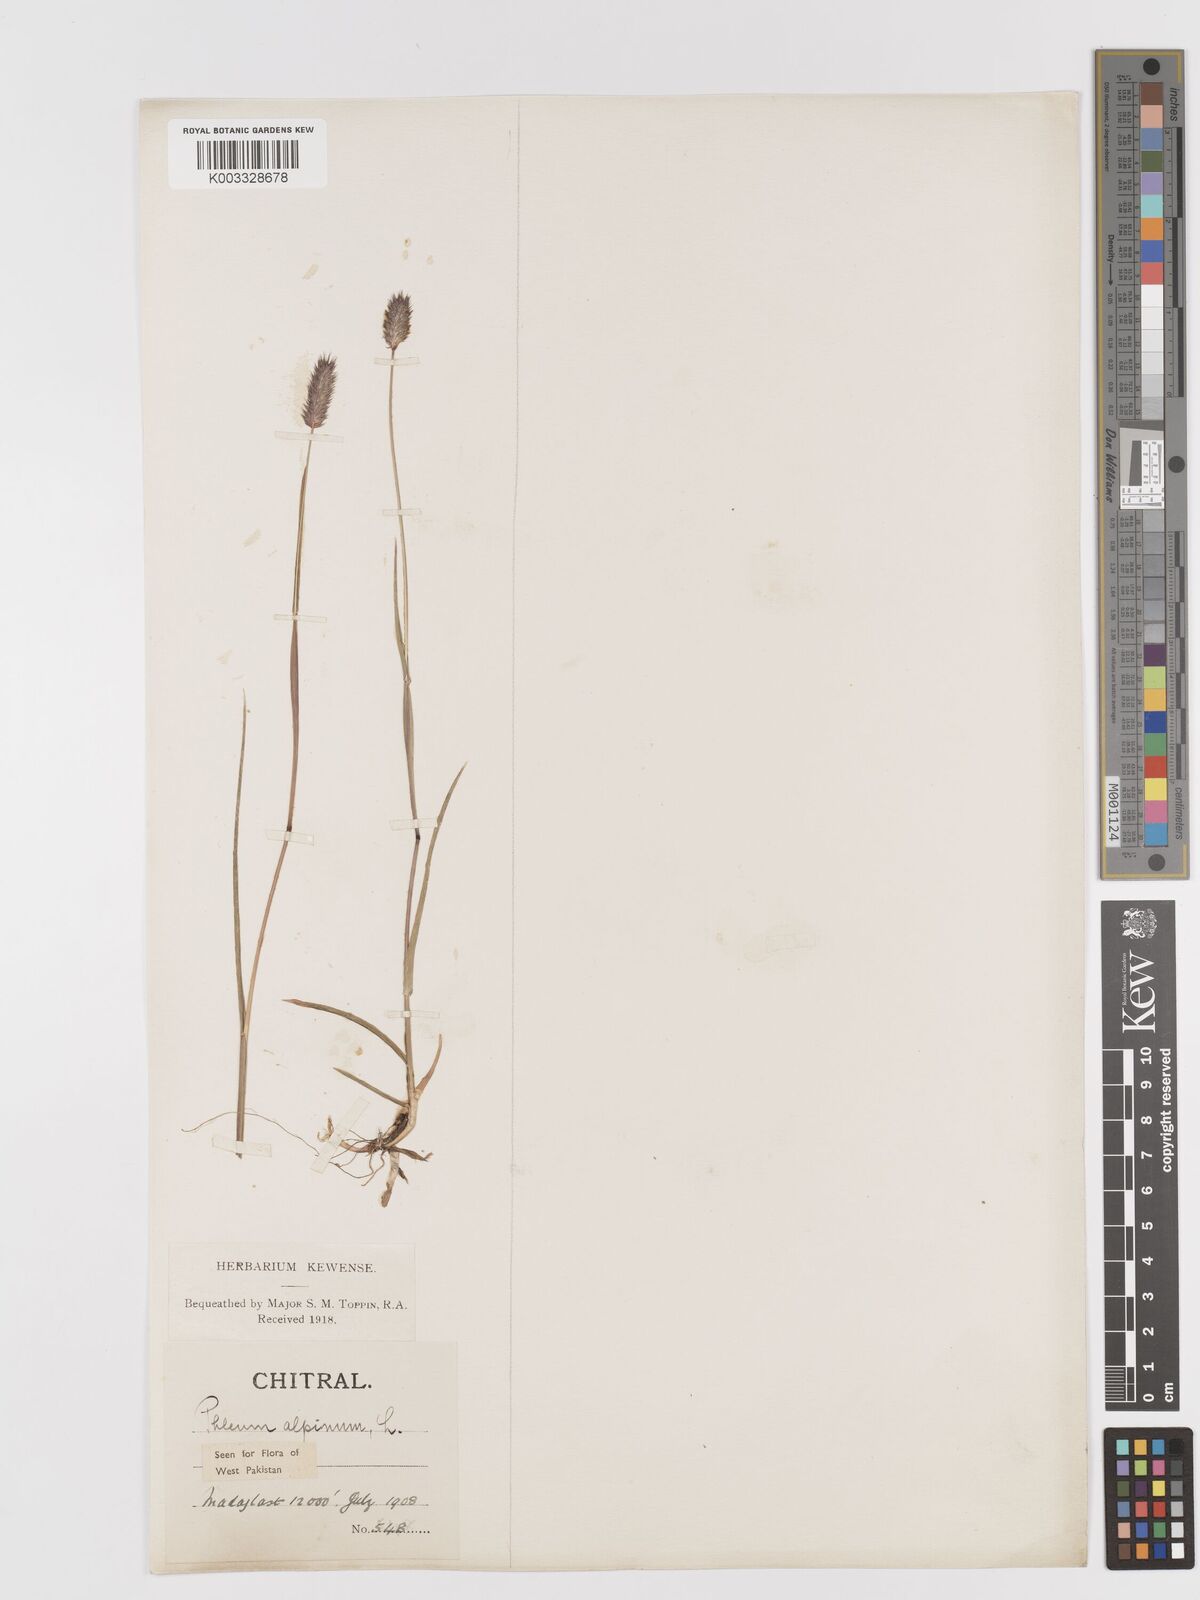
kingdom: Plantae
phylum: Tracheophyta
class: Liliopsida
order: Poales
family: Poaceae
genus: Phleum
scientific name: Phleum alpinum
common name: Alpine cat's-tail
